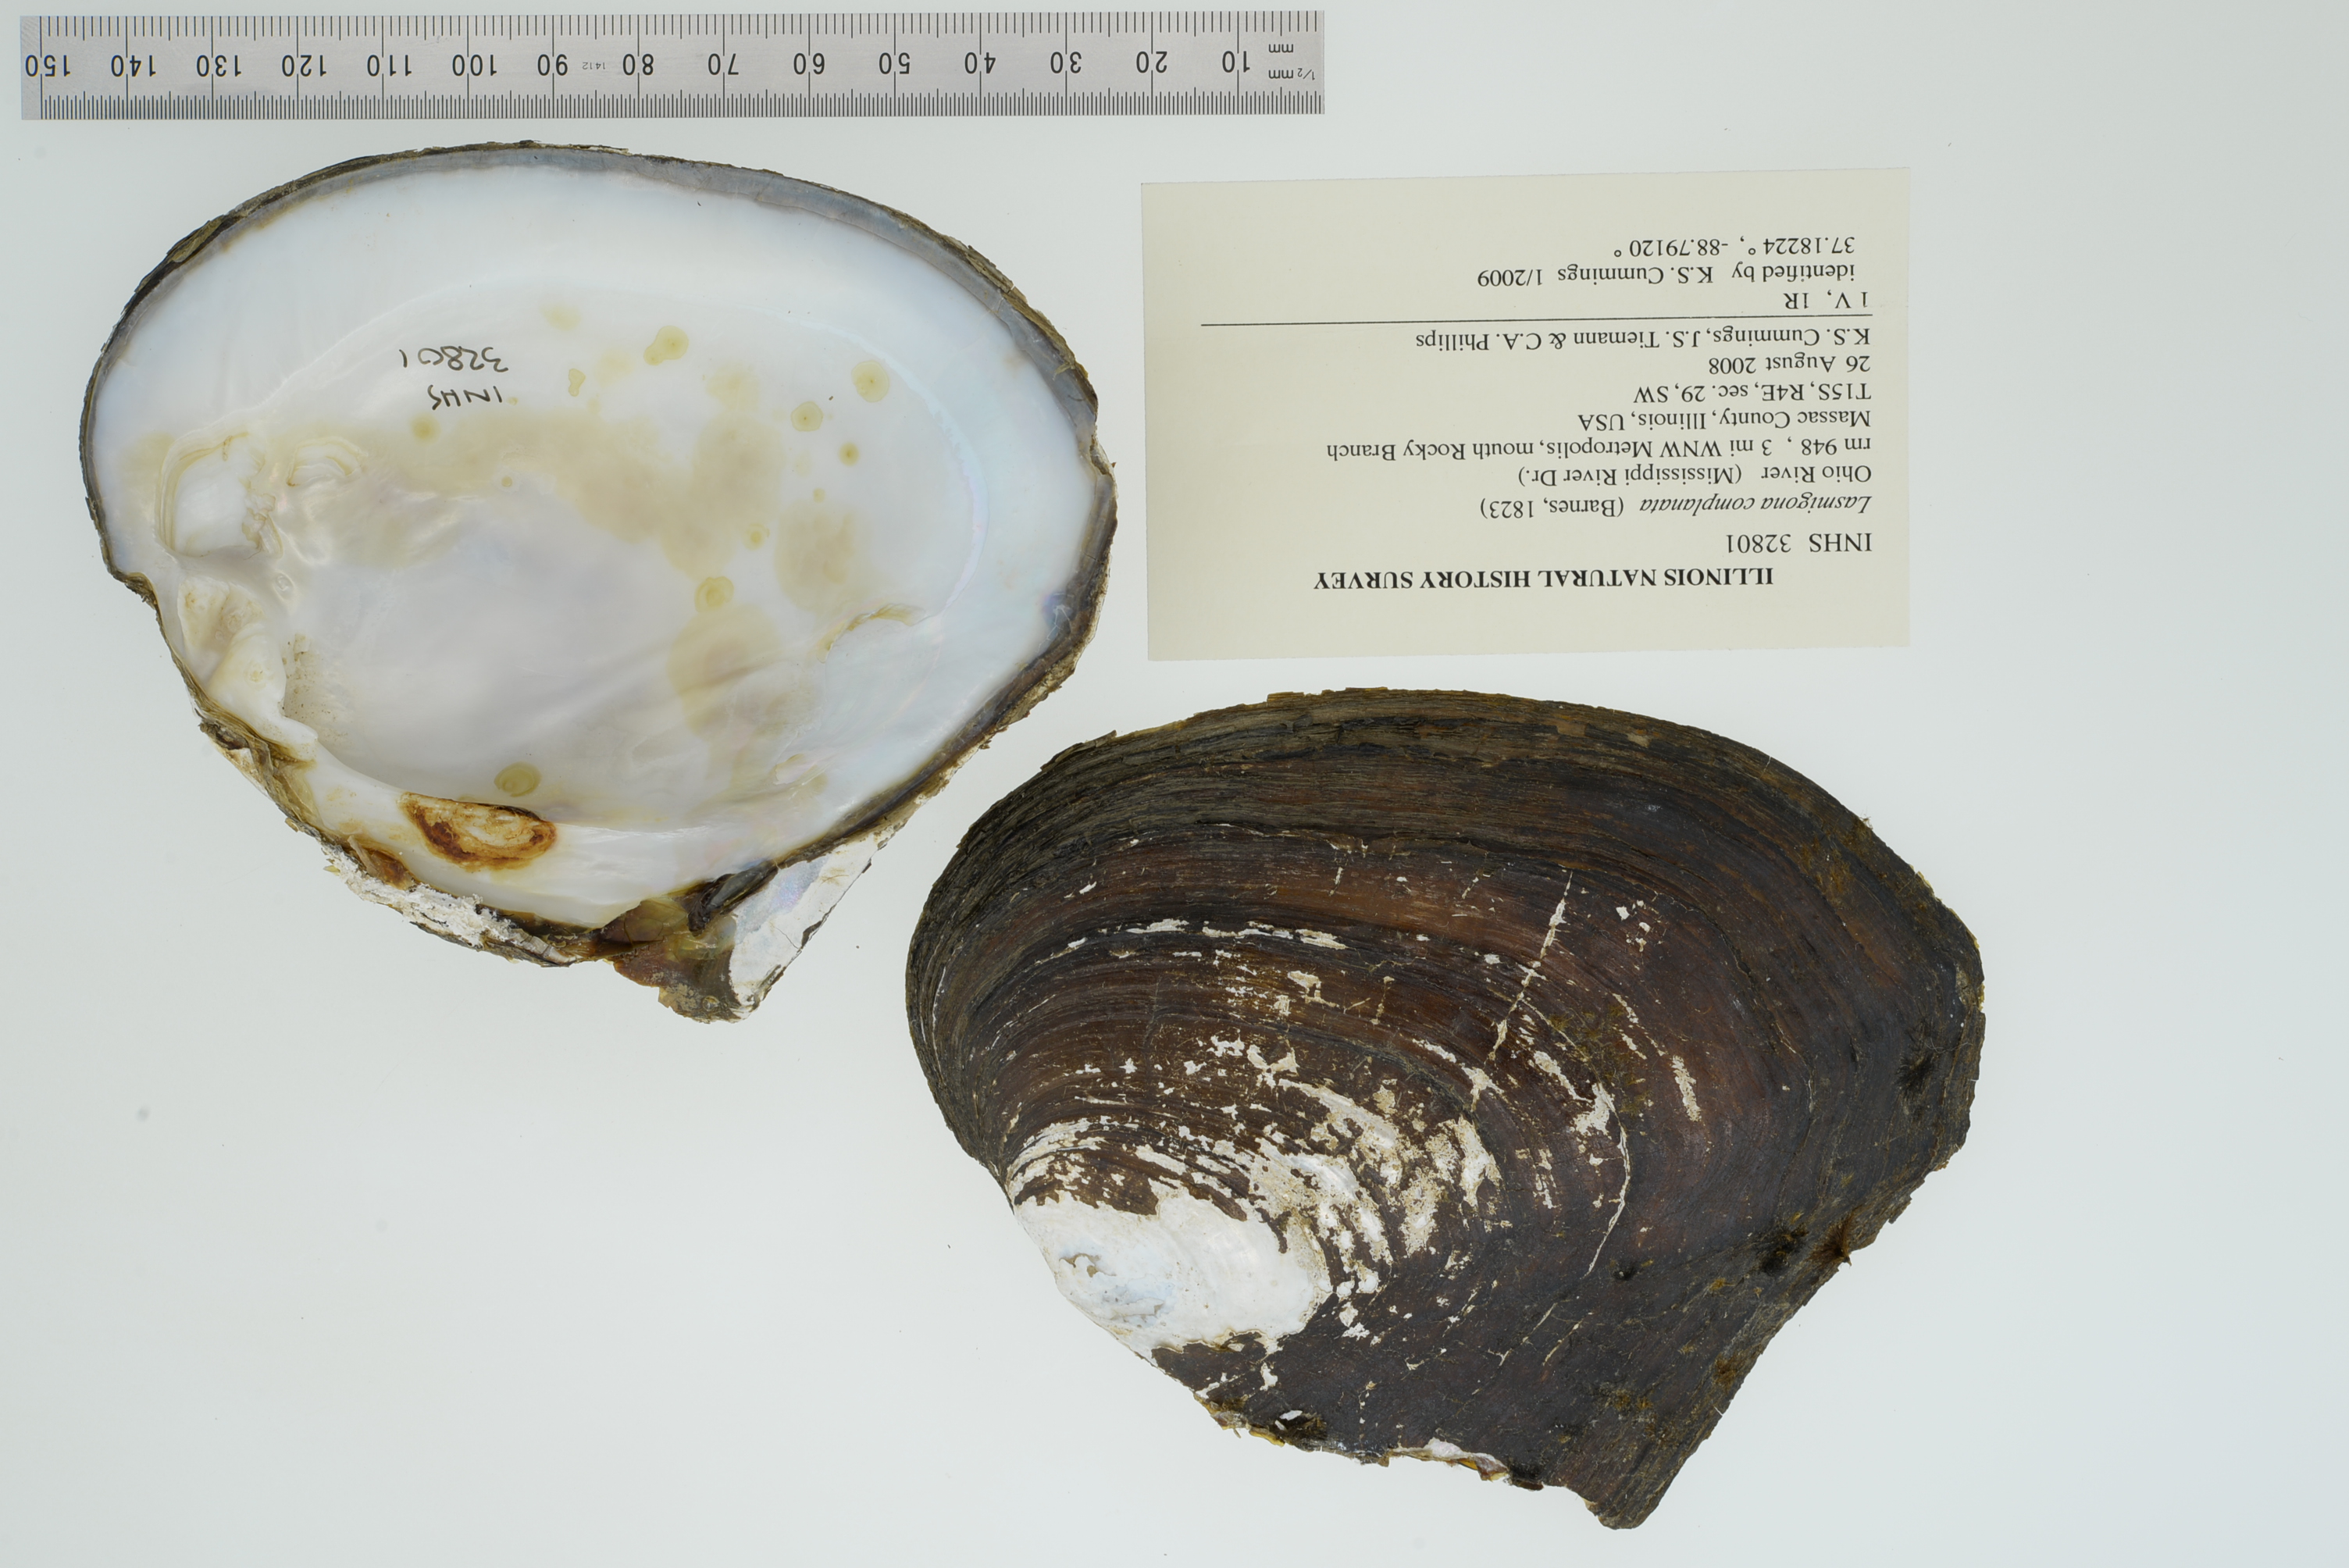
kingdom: Animalia
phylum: Mollusca
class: Bivalvia
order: Unionida
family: Unionidae
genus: Lasmigona
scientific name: Lasmigona complanata
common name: White heelsplitter
